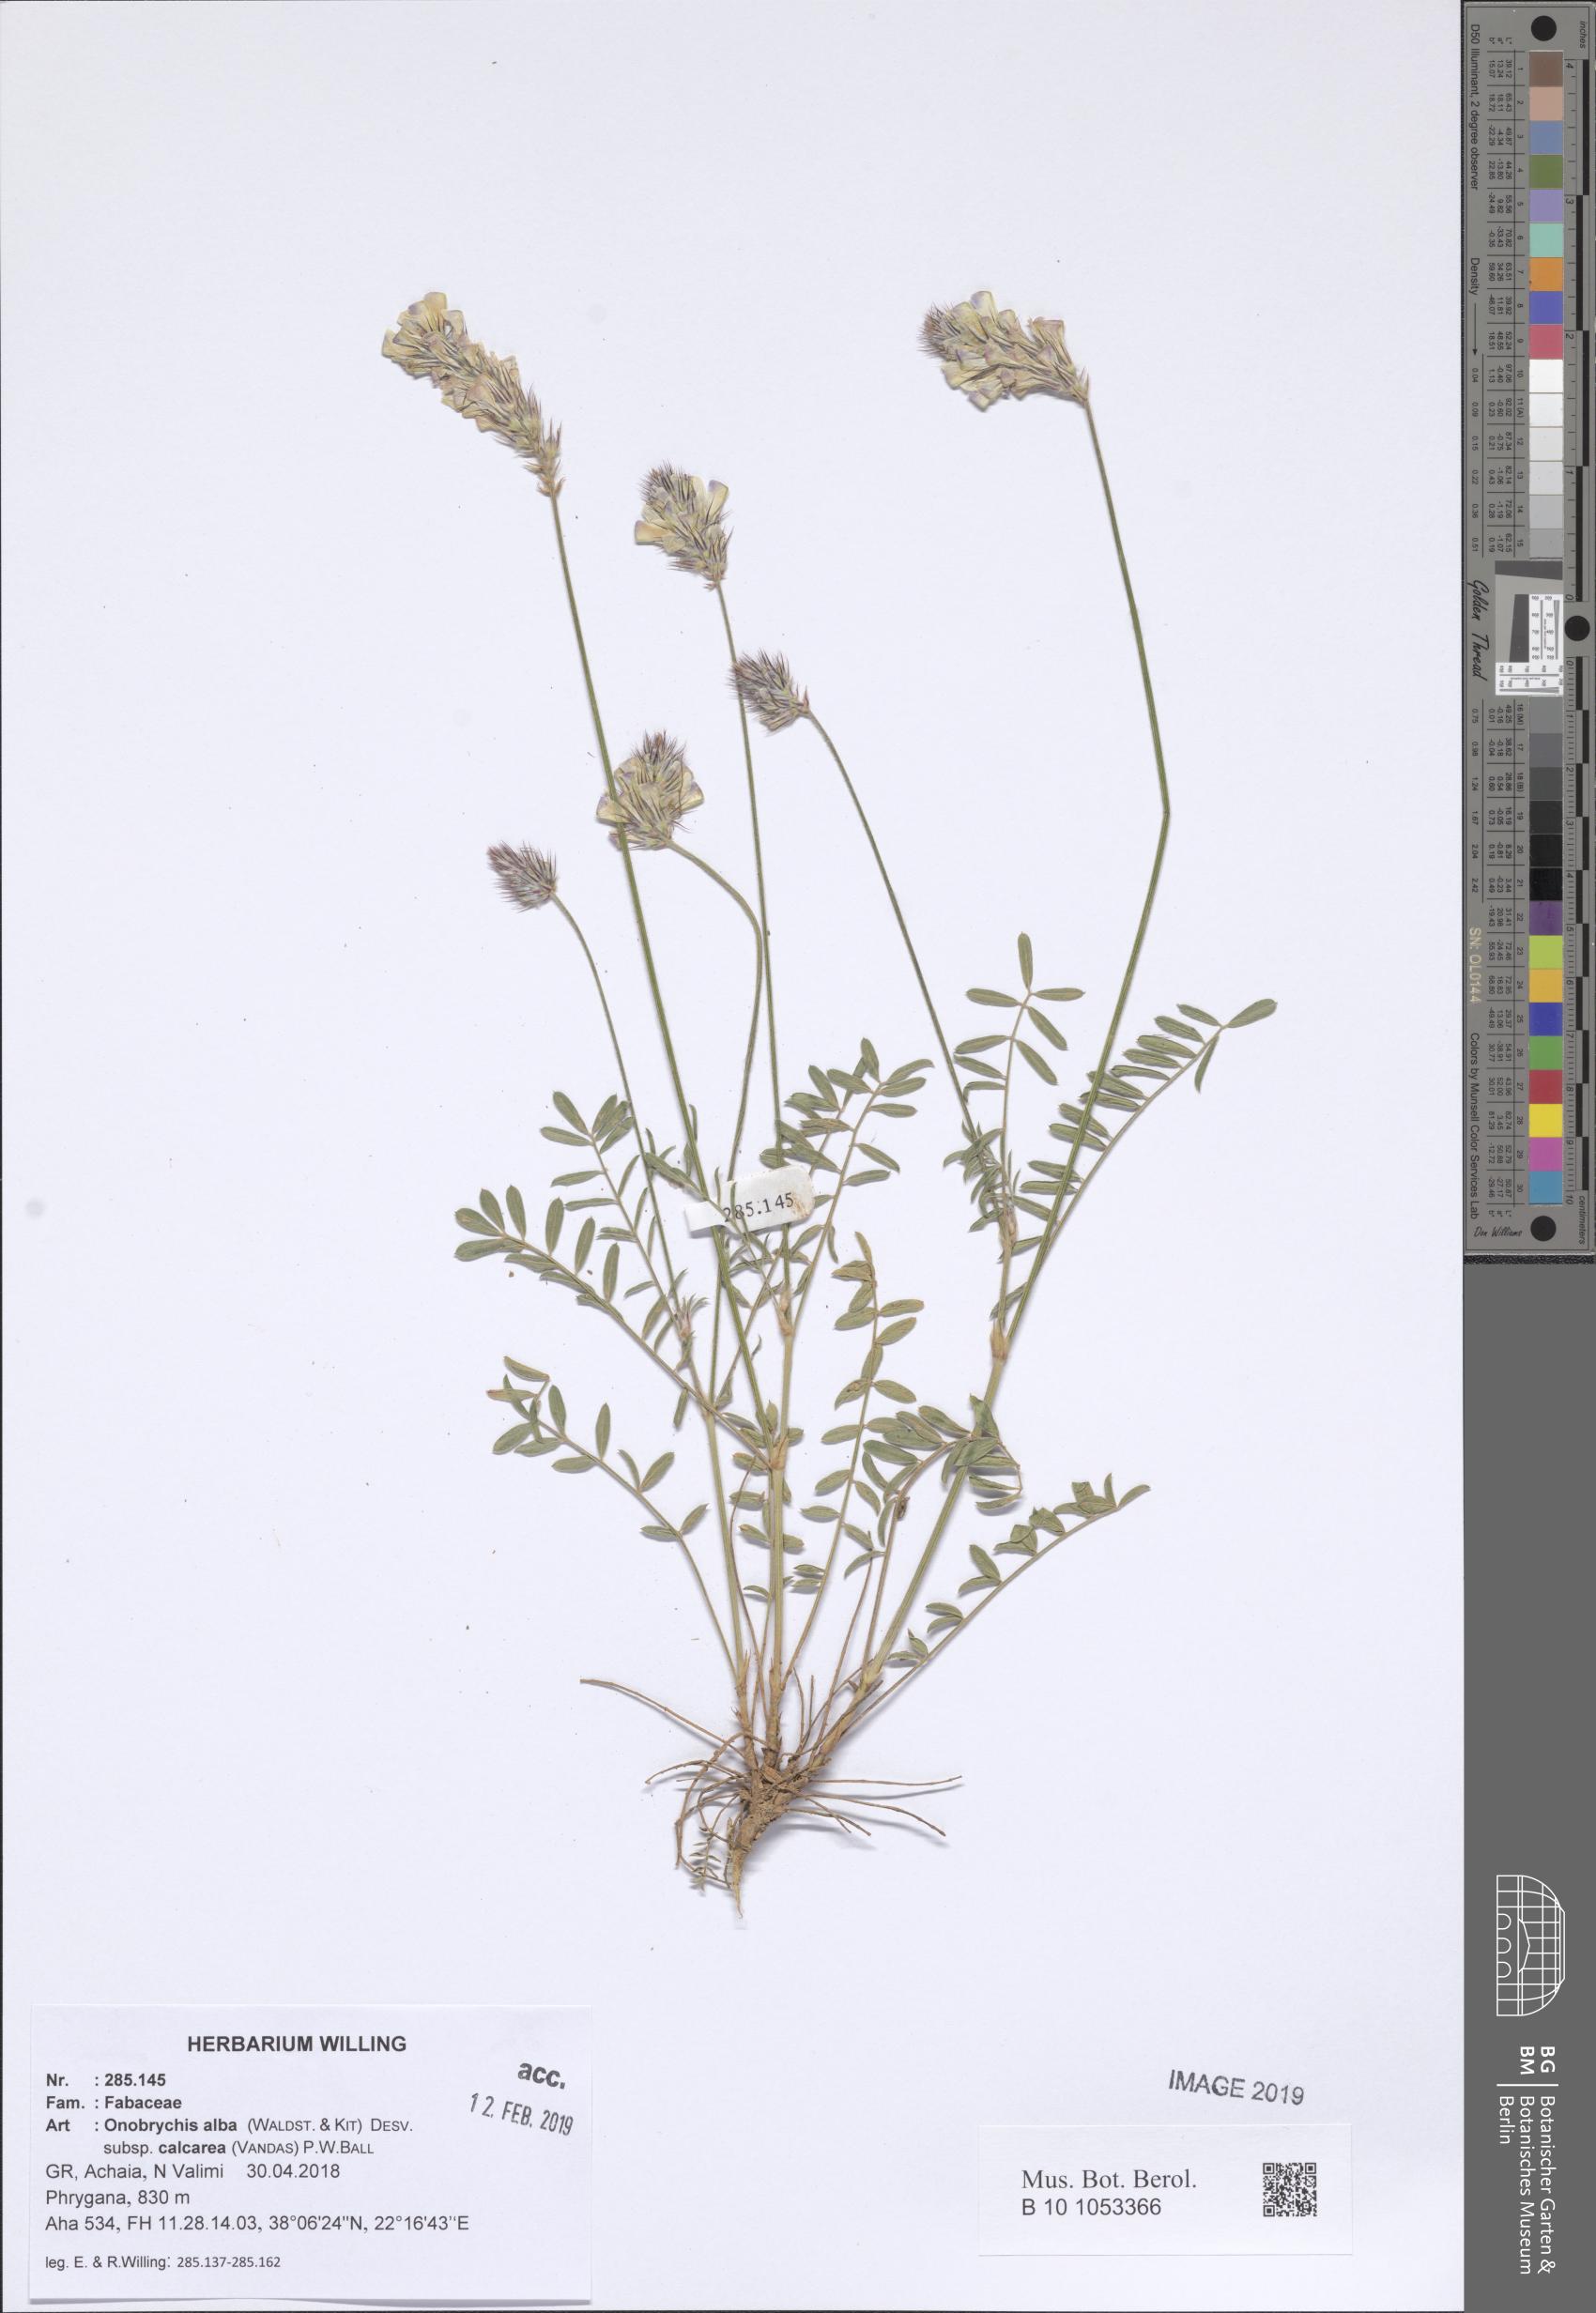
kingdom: Plantae
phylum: Tracheophyta
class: Magnoliopsida
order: Fabales
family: Fabaceae
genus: Onobrychis
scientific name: Onobrychis alba
